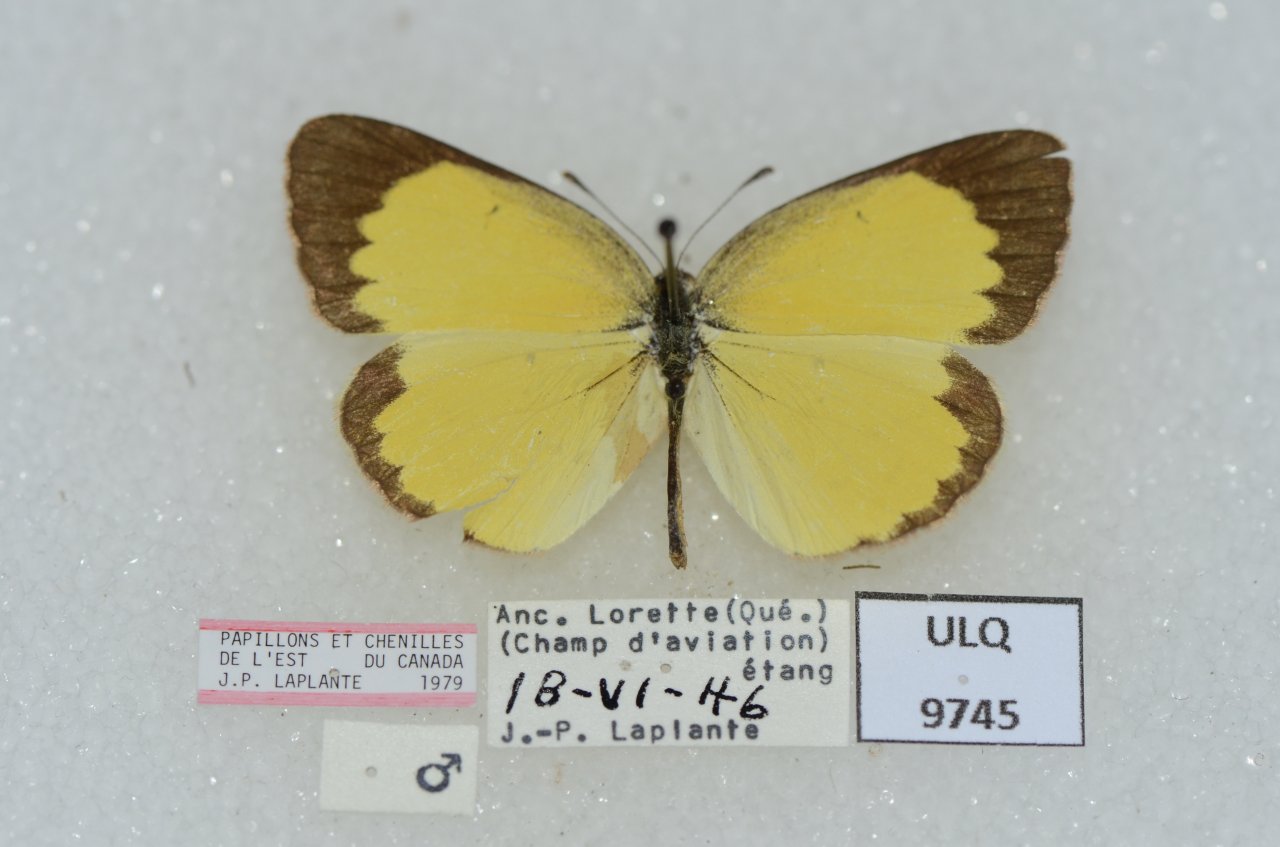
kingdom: Animalia
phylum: Arthropoda
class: Insecta
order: Lepidoptera
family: Pieridae
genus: Pyrisitia
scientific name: Pyrisitia lisa
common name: Little Yellow
